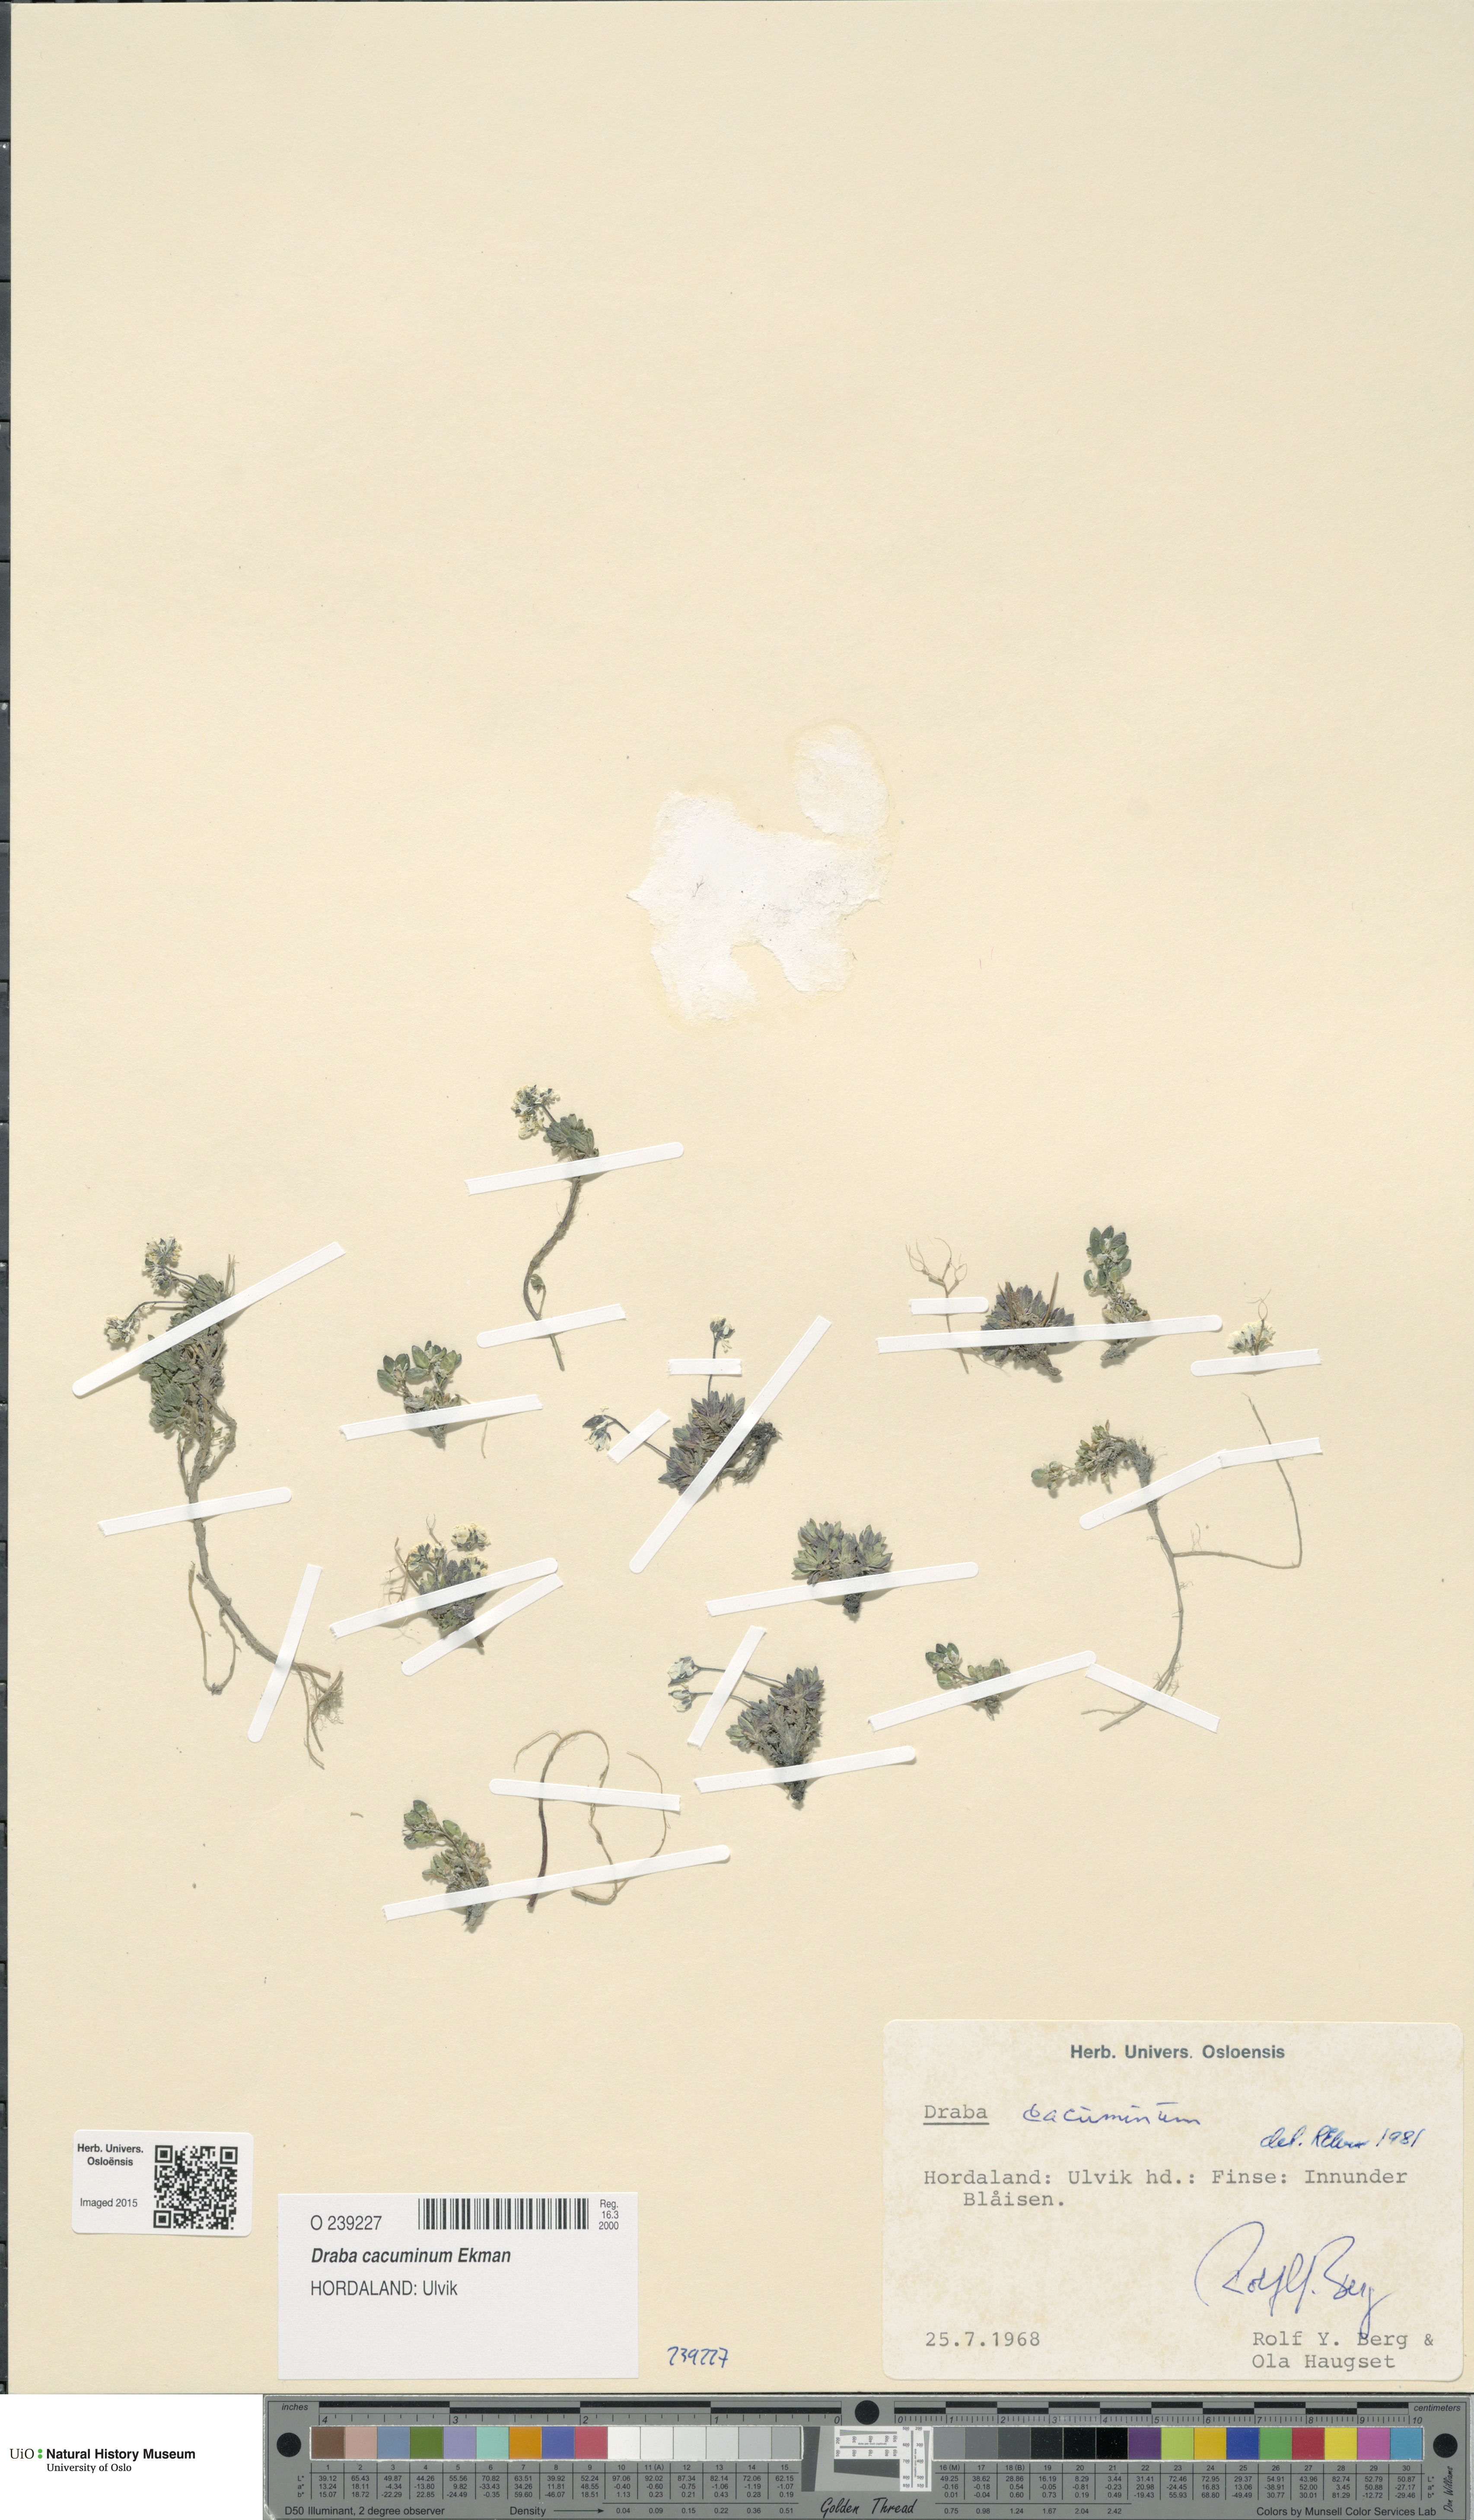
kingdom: Plantae
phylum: Tracheophyta
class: Magnoliopsida
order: Brassicales
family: Brassicaceae
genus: Draba
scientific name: Draba cacuminum
